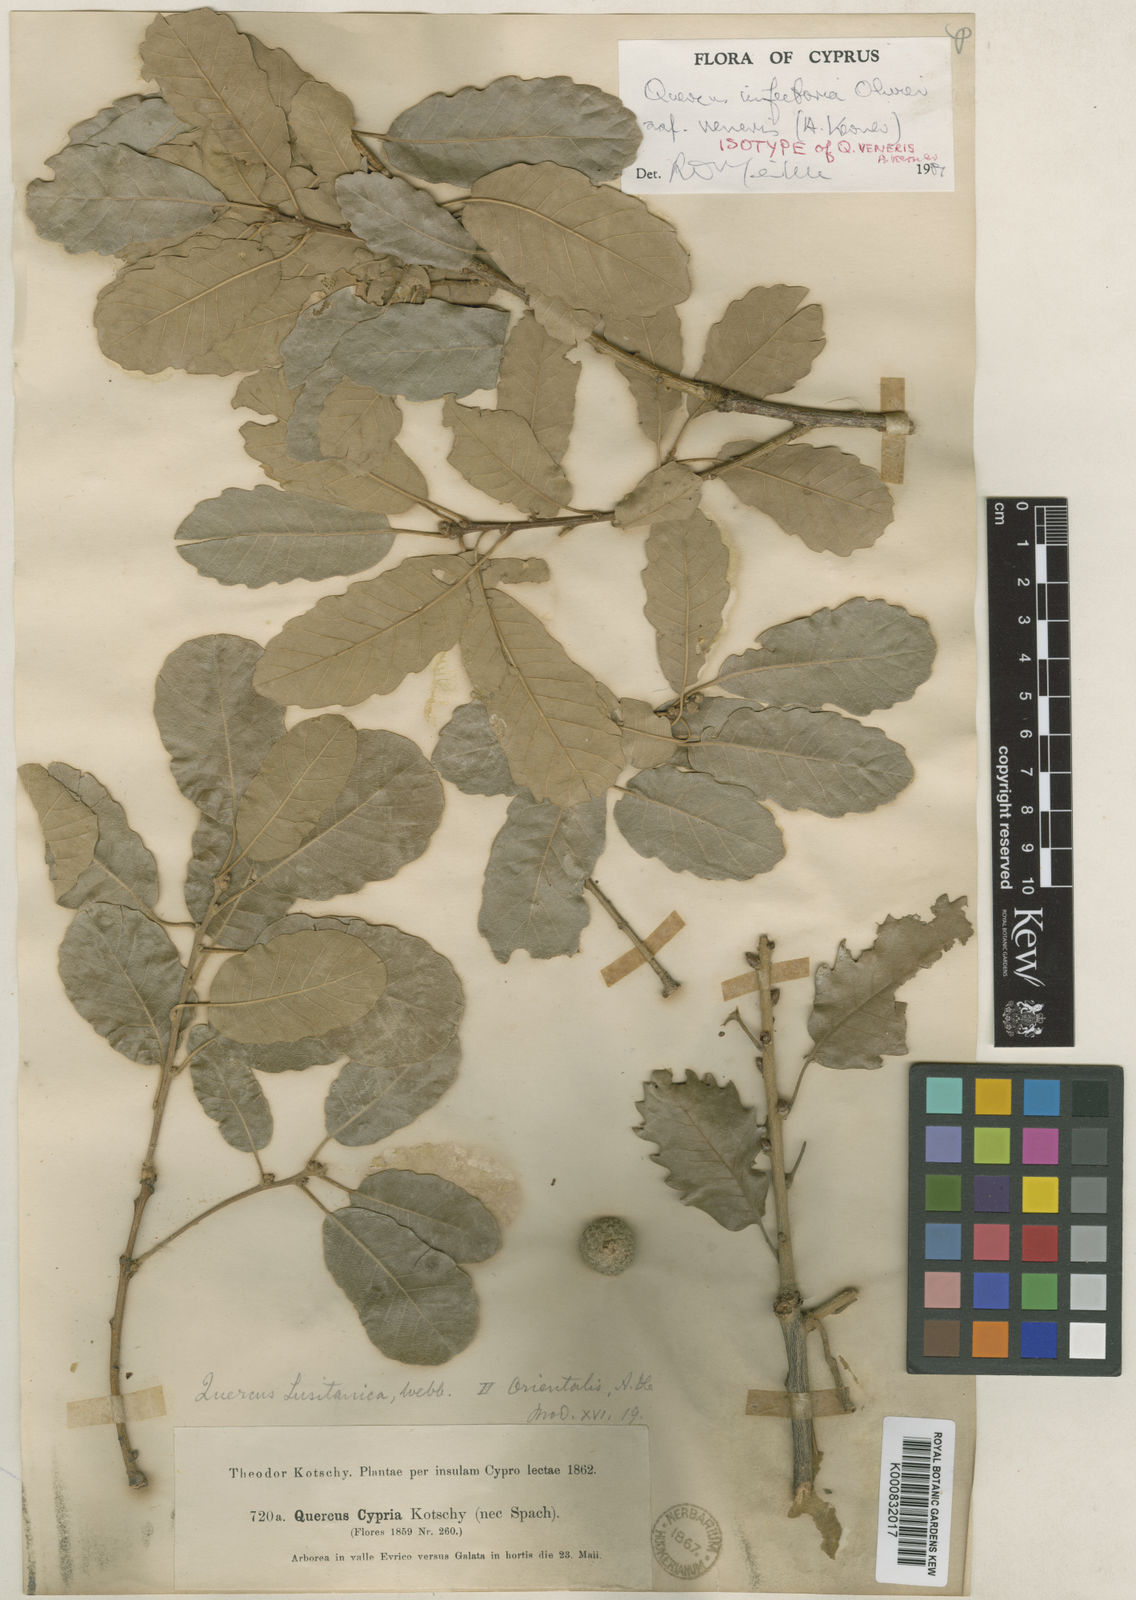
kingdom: Plantae
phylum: Tracheophyta
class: Magnoliopsida
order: Fagales
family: Fagaceae
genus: Quercus
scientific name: Quercus infectoria
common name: Aleppo oak
